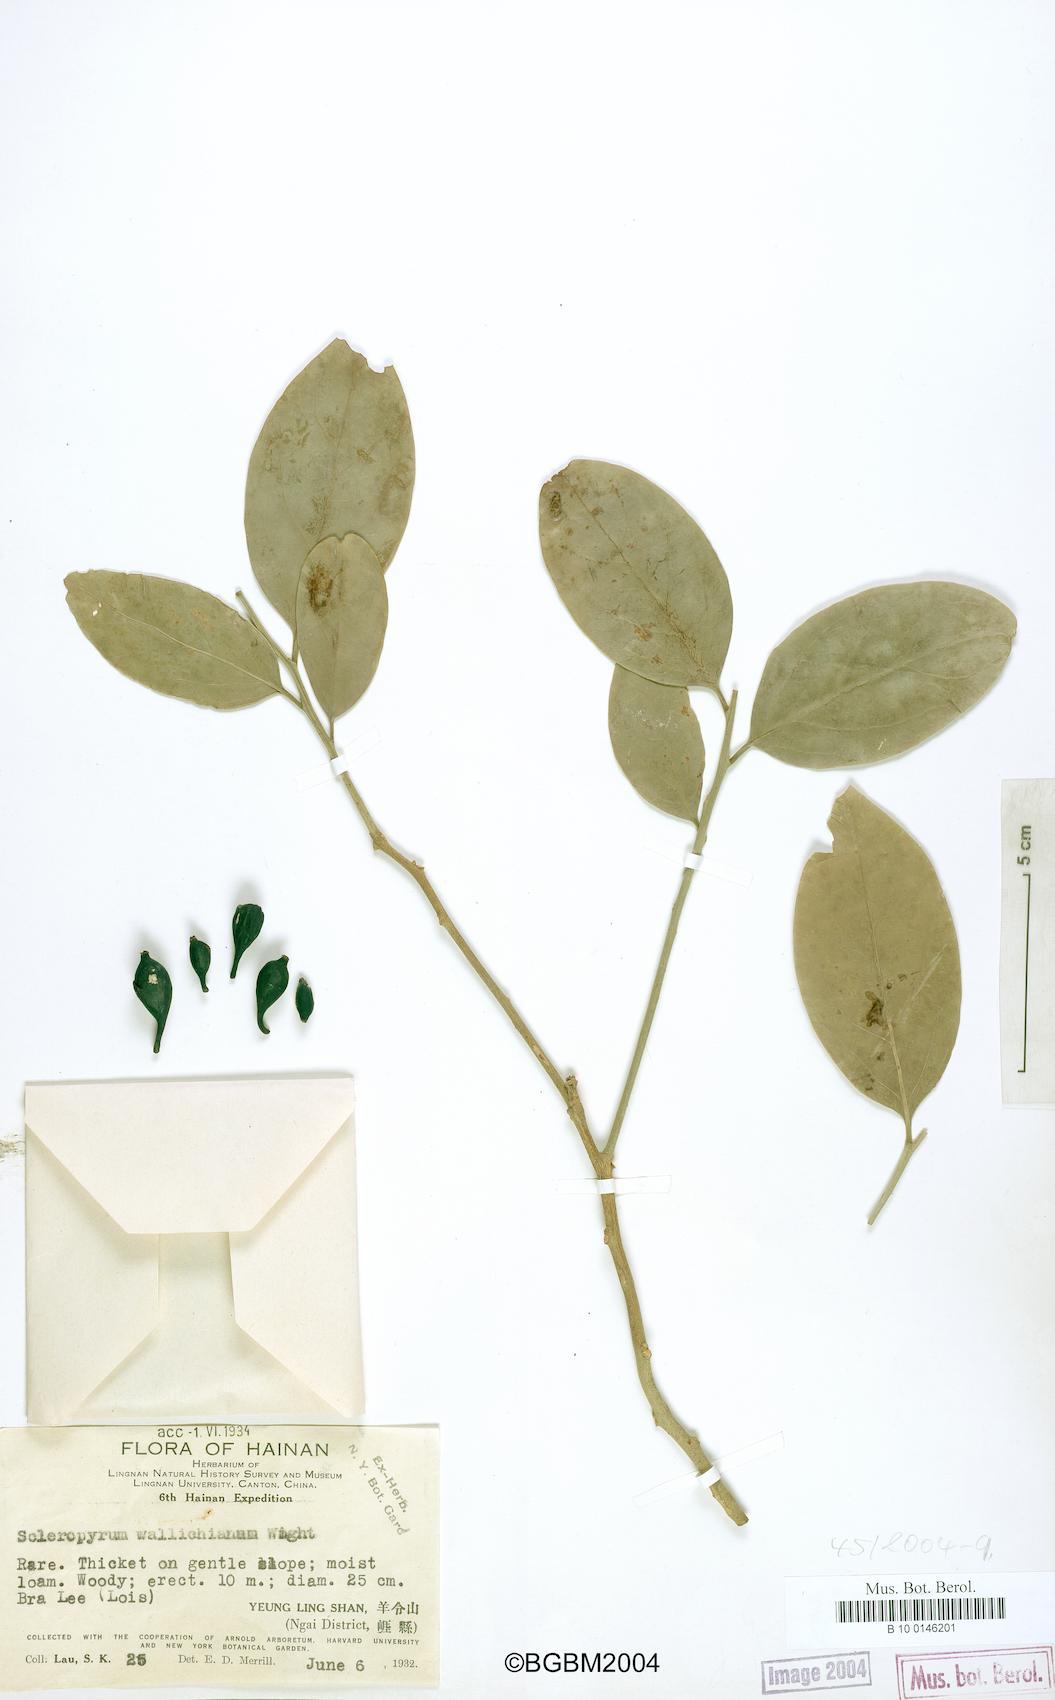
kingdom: Plantae
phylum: Tracheophyta
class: Magnoliopsida
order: Santalales
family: Cervantesiaceae
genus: Scleropyrum
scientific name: Scleropyrum pentandrum
